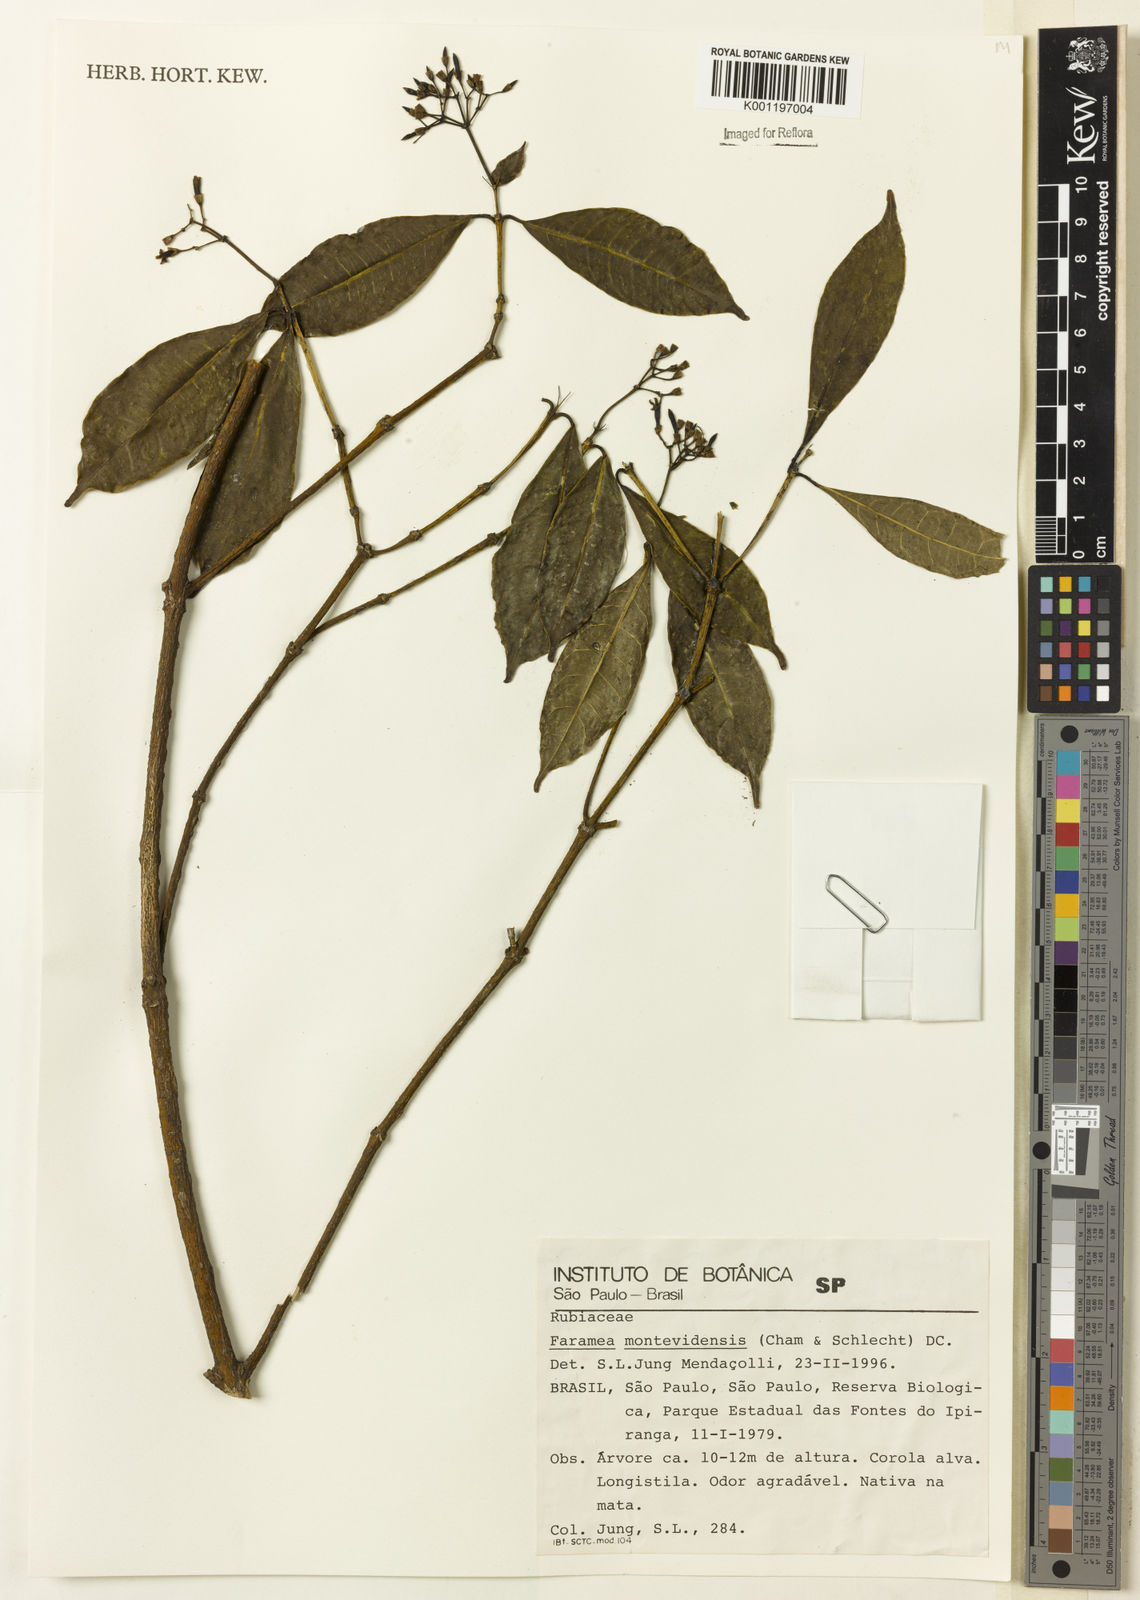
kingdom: Plantae
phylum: Tracheophyta
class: Magnoliopsida
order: Gentianales
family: Rubiaceae
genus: Faramea
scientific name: Faramea montevidensis
